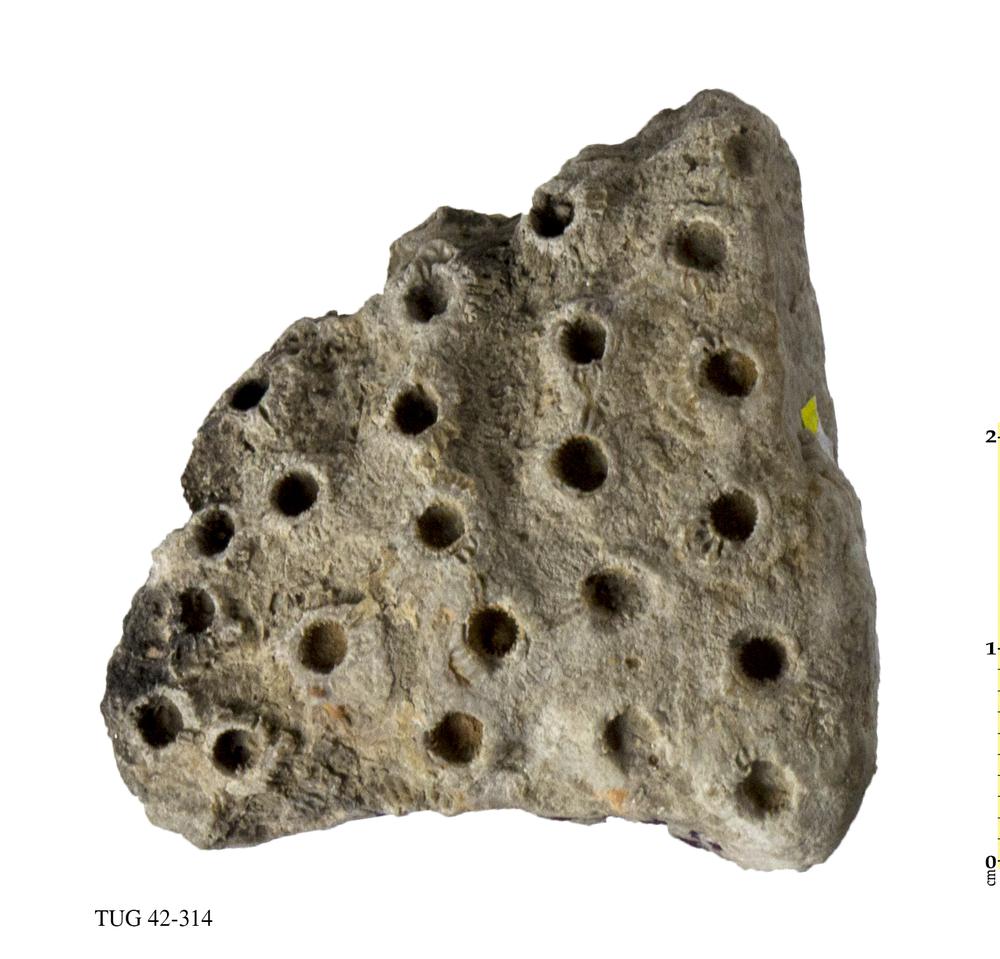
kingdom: Animalia
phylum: Cnidaria
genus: Syringophyllum
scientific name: Syringophyllum
